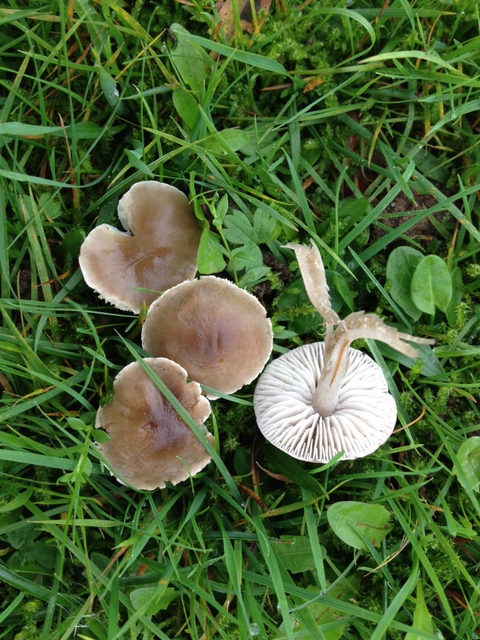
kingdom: Fungi
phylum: Basidiomycota
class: Agaricomycetes
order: Agaricales
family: Tricholomataceae
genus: Dermoloma
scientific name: Dermoloma cuneifolium
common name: eng-nonnehat
